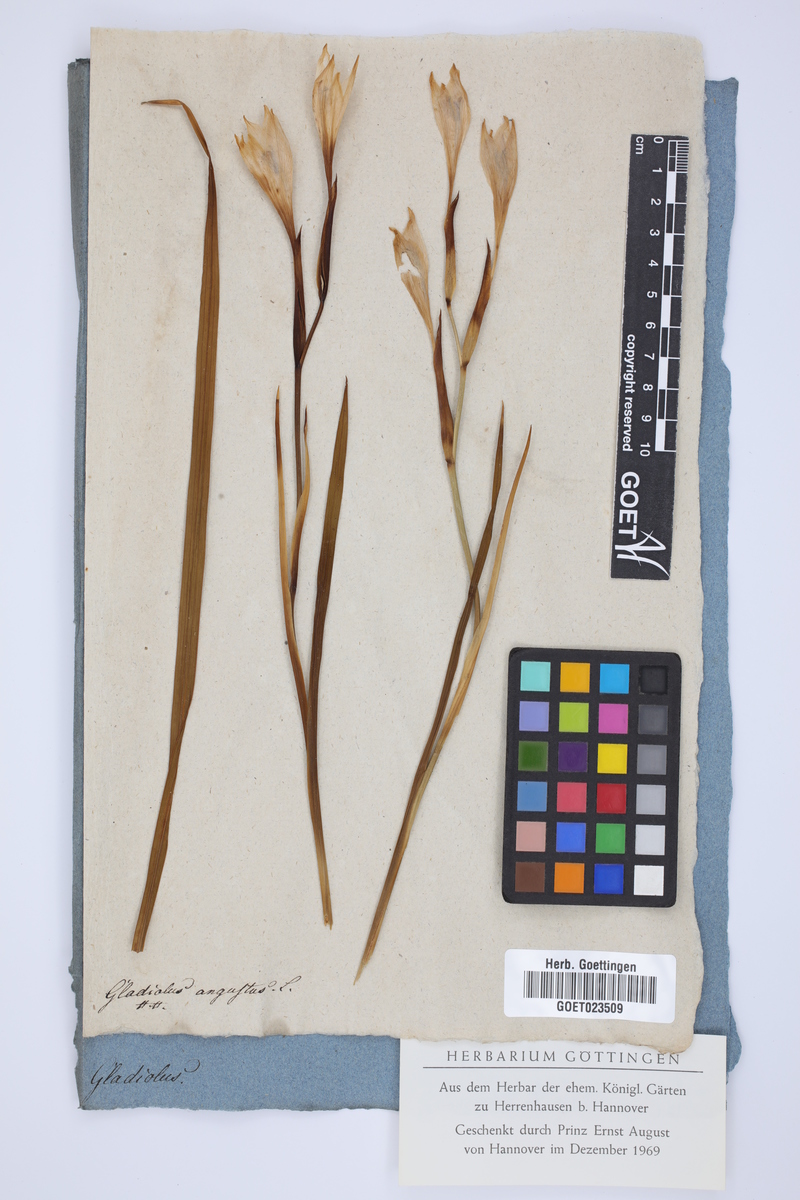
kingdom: Plantae
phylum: Tracheophyta
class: Liliopsida
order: Asparagales
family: Iridaceae
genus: Gladiolus
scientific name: Gladiolus angustus
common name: Painted-lady
